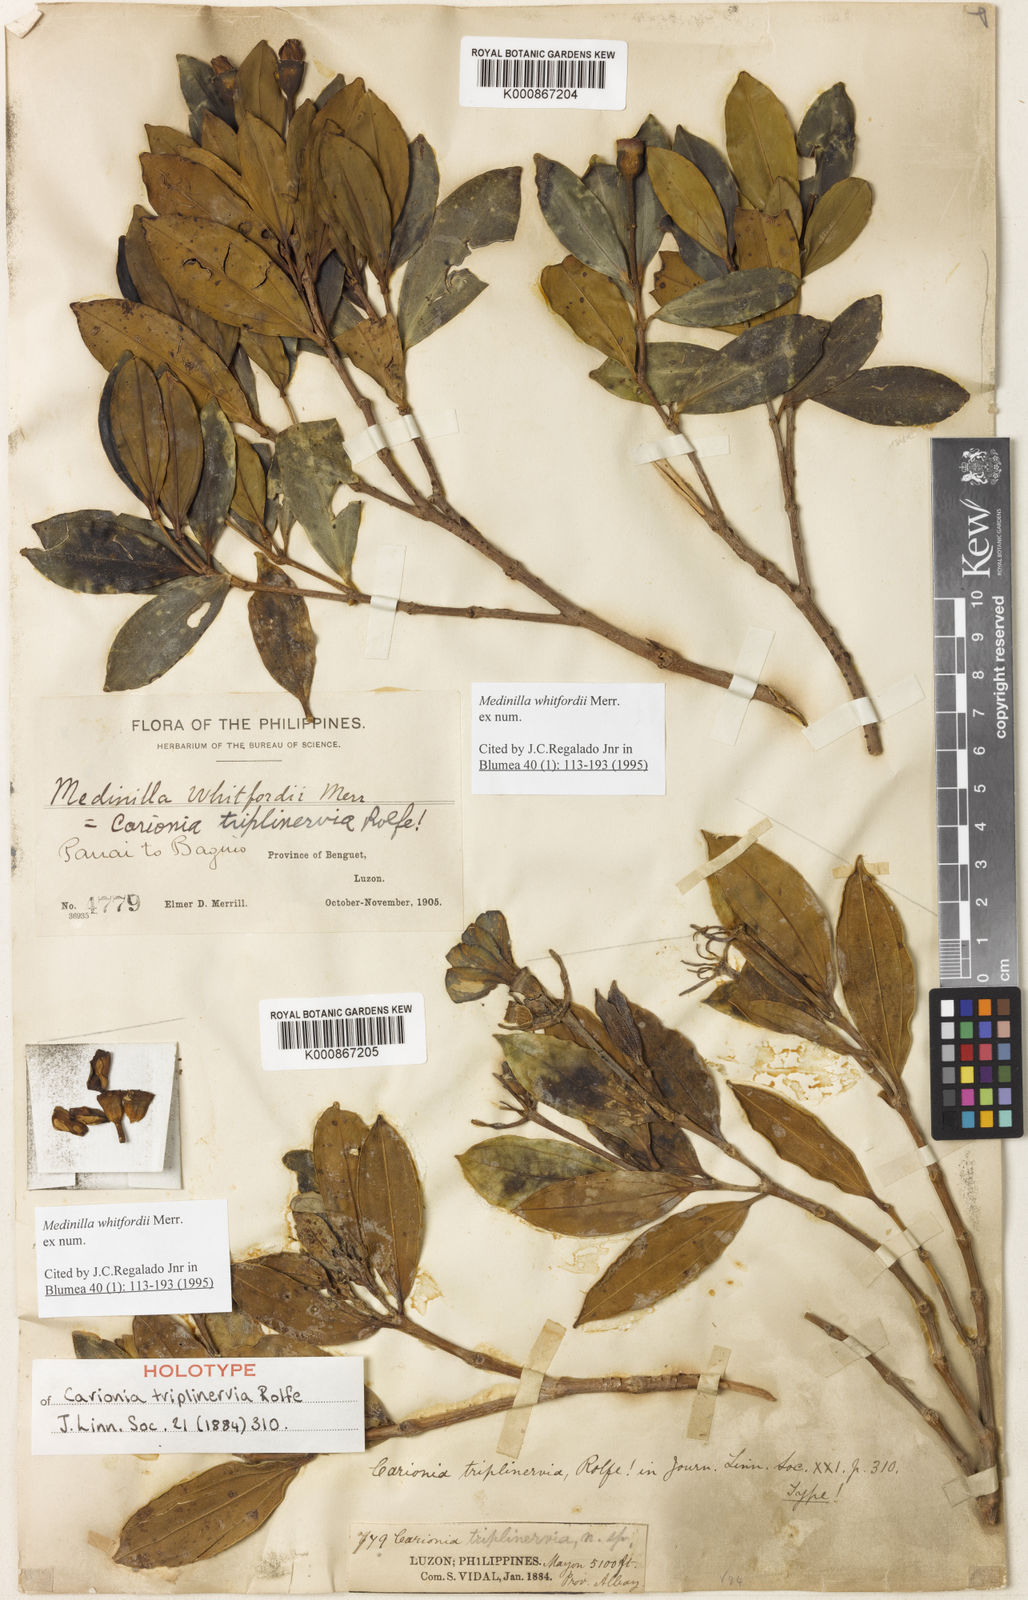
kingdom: Plantae
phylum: Tracheophyta
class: Magnoliopsida
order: Myrtales
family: Melastomataceae
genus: Medinilla
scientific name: Medinilla whitfordii
